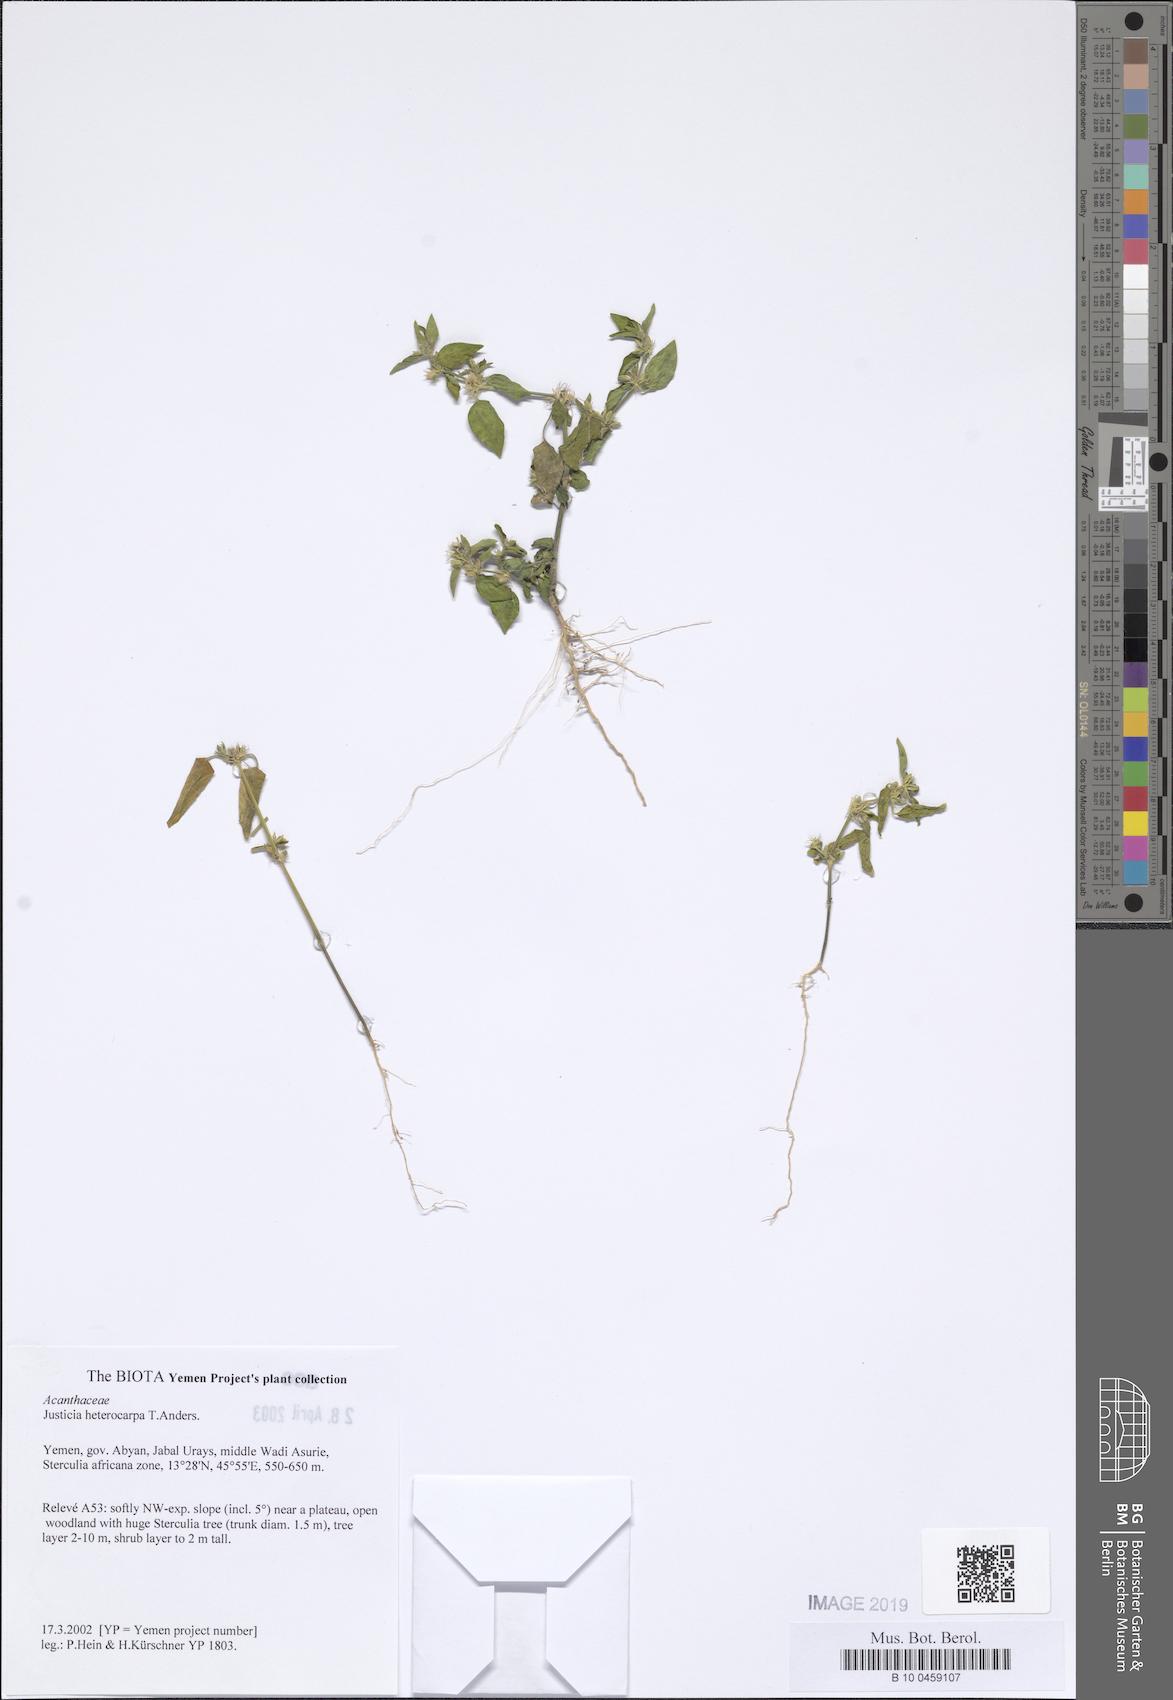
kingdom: Plantae
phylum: Tracheophyta
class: Magnoliopsida
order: Lamiales
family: Acanthaceae
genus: Justicia
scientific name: Justicia heterocarpa
